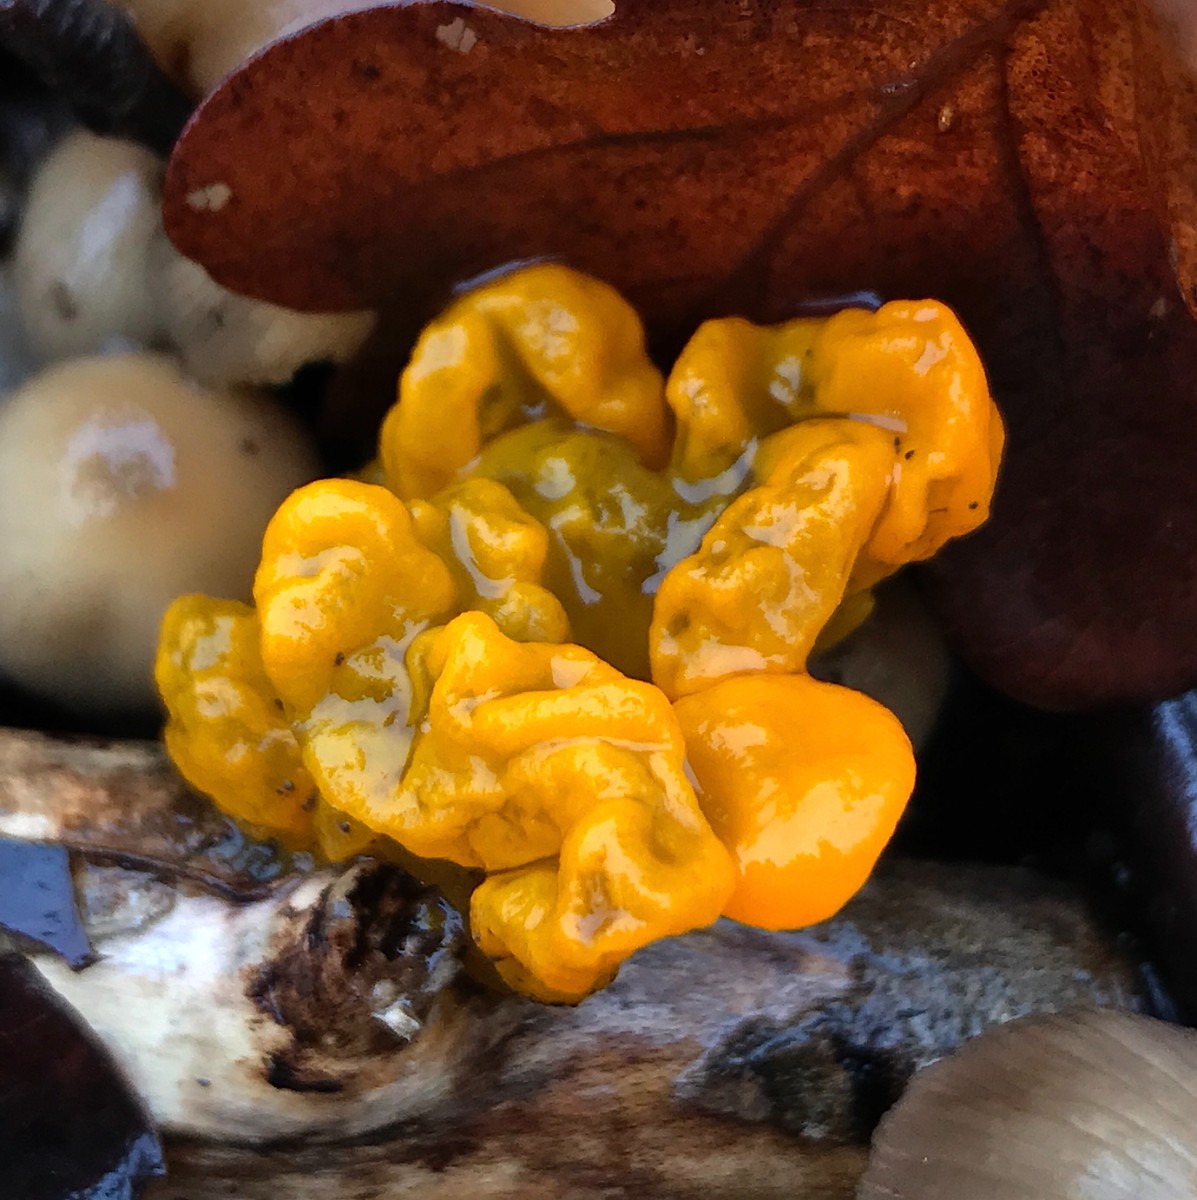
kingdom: Fungi
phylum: Basidiomycota
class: Tremellomycetes
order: Tremellales
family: Tremellaceae
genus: Tremella
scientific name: Tremella mesenterica
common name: gul bævresvamp
